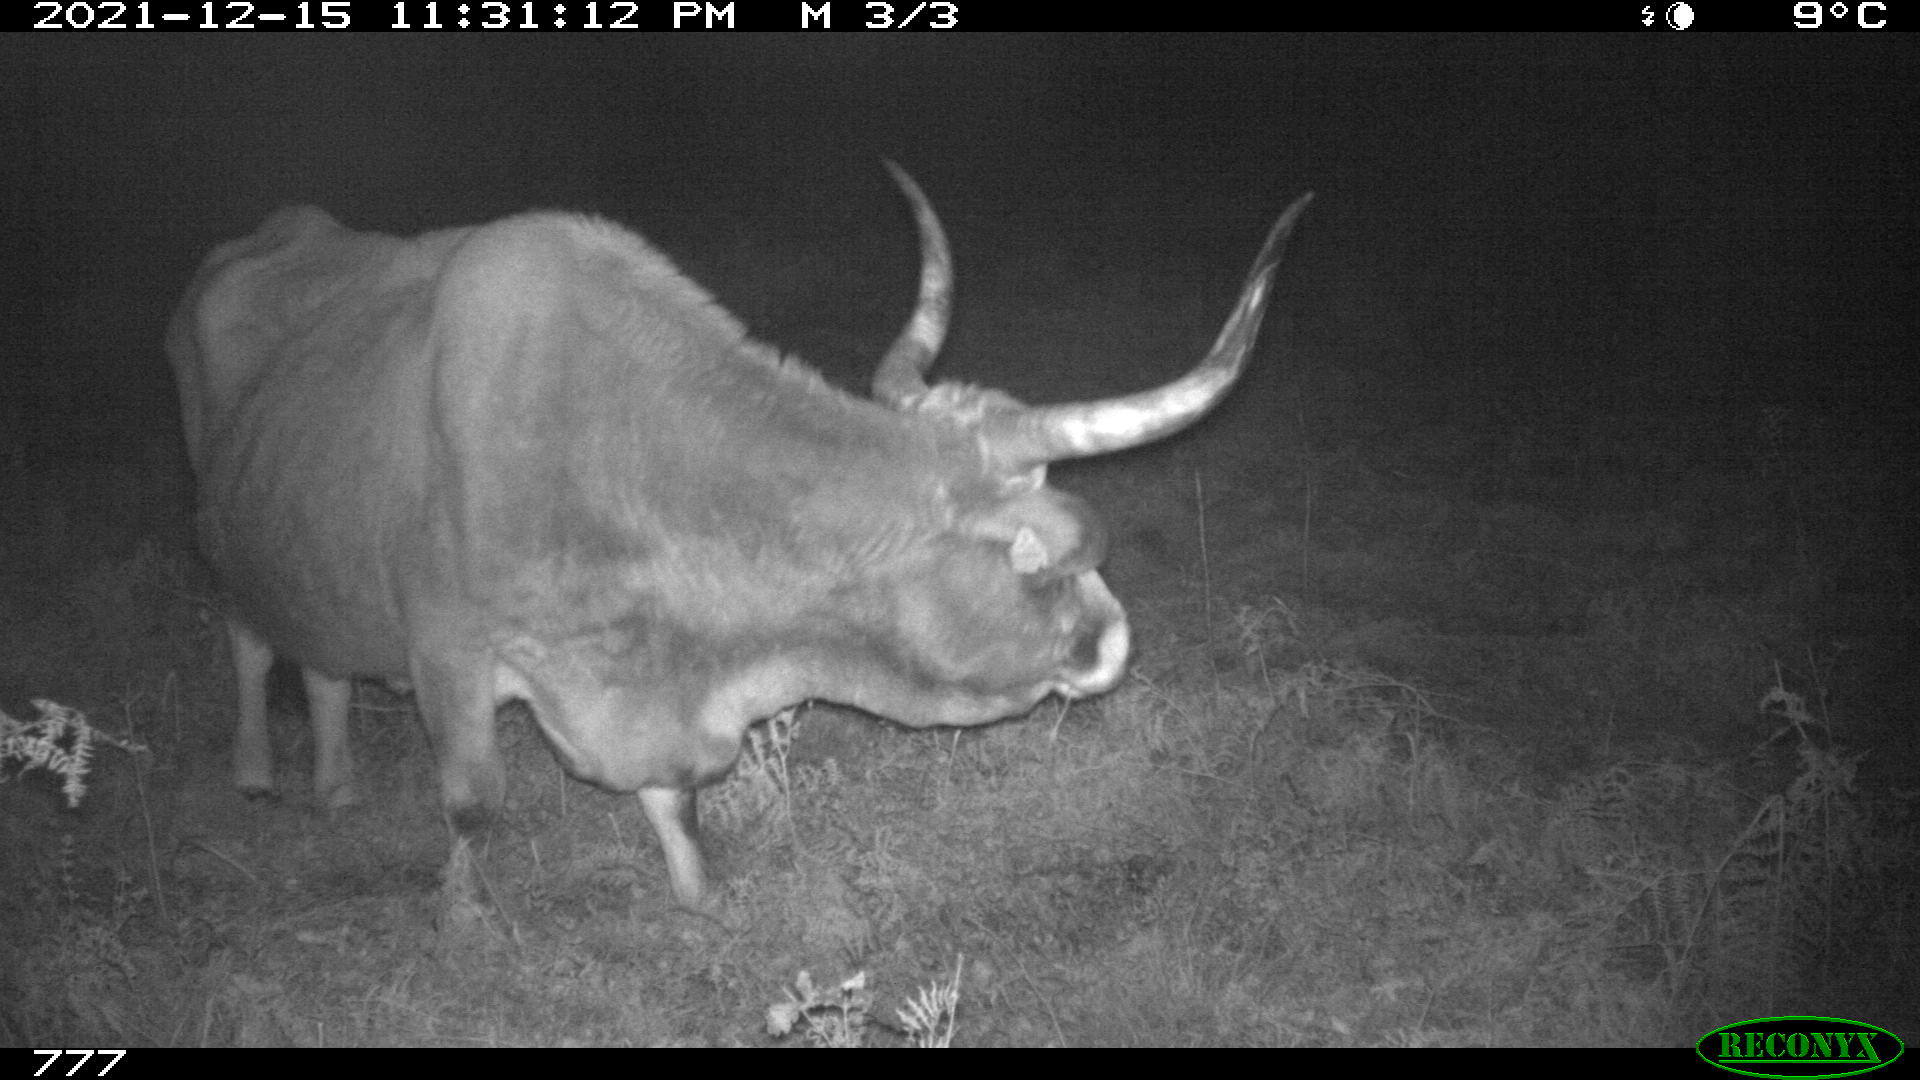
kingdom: Animalia
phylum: Chordata
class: Mammalia
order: Artiodactyla
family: Bovidae
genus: Bos
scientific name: Bos taurus
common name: Domesticated cattle
